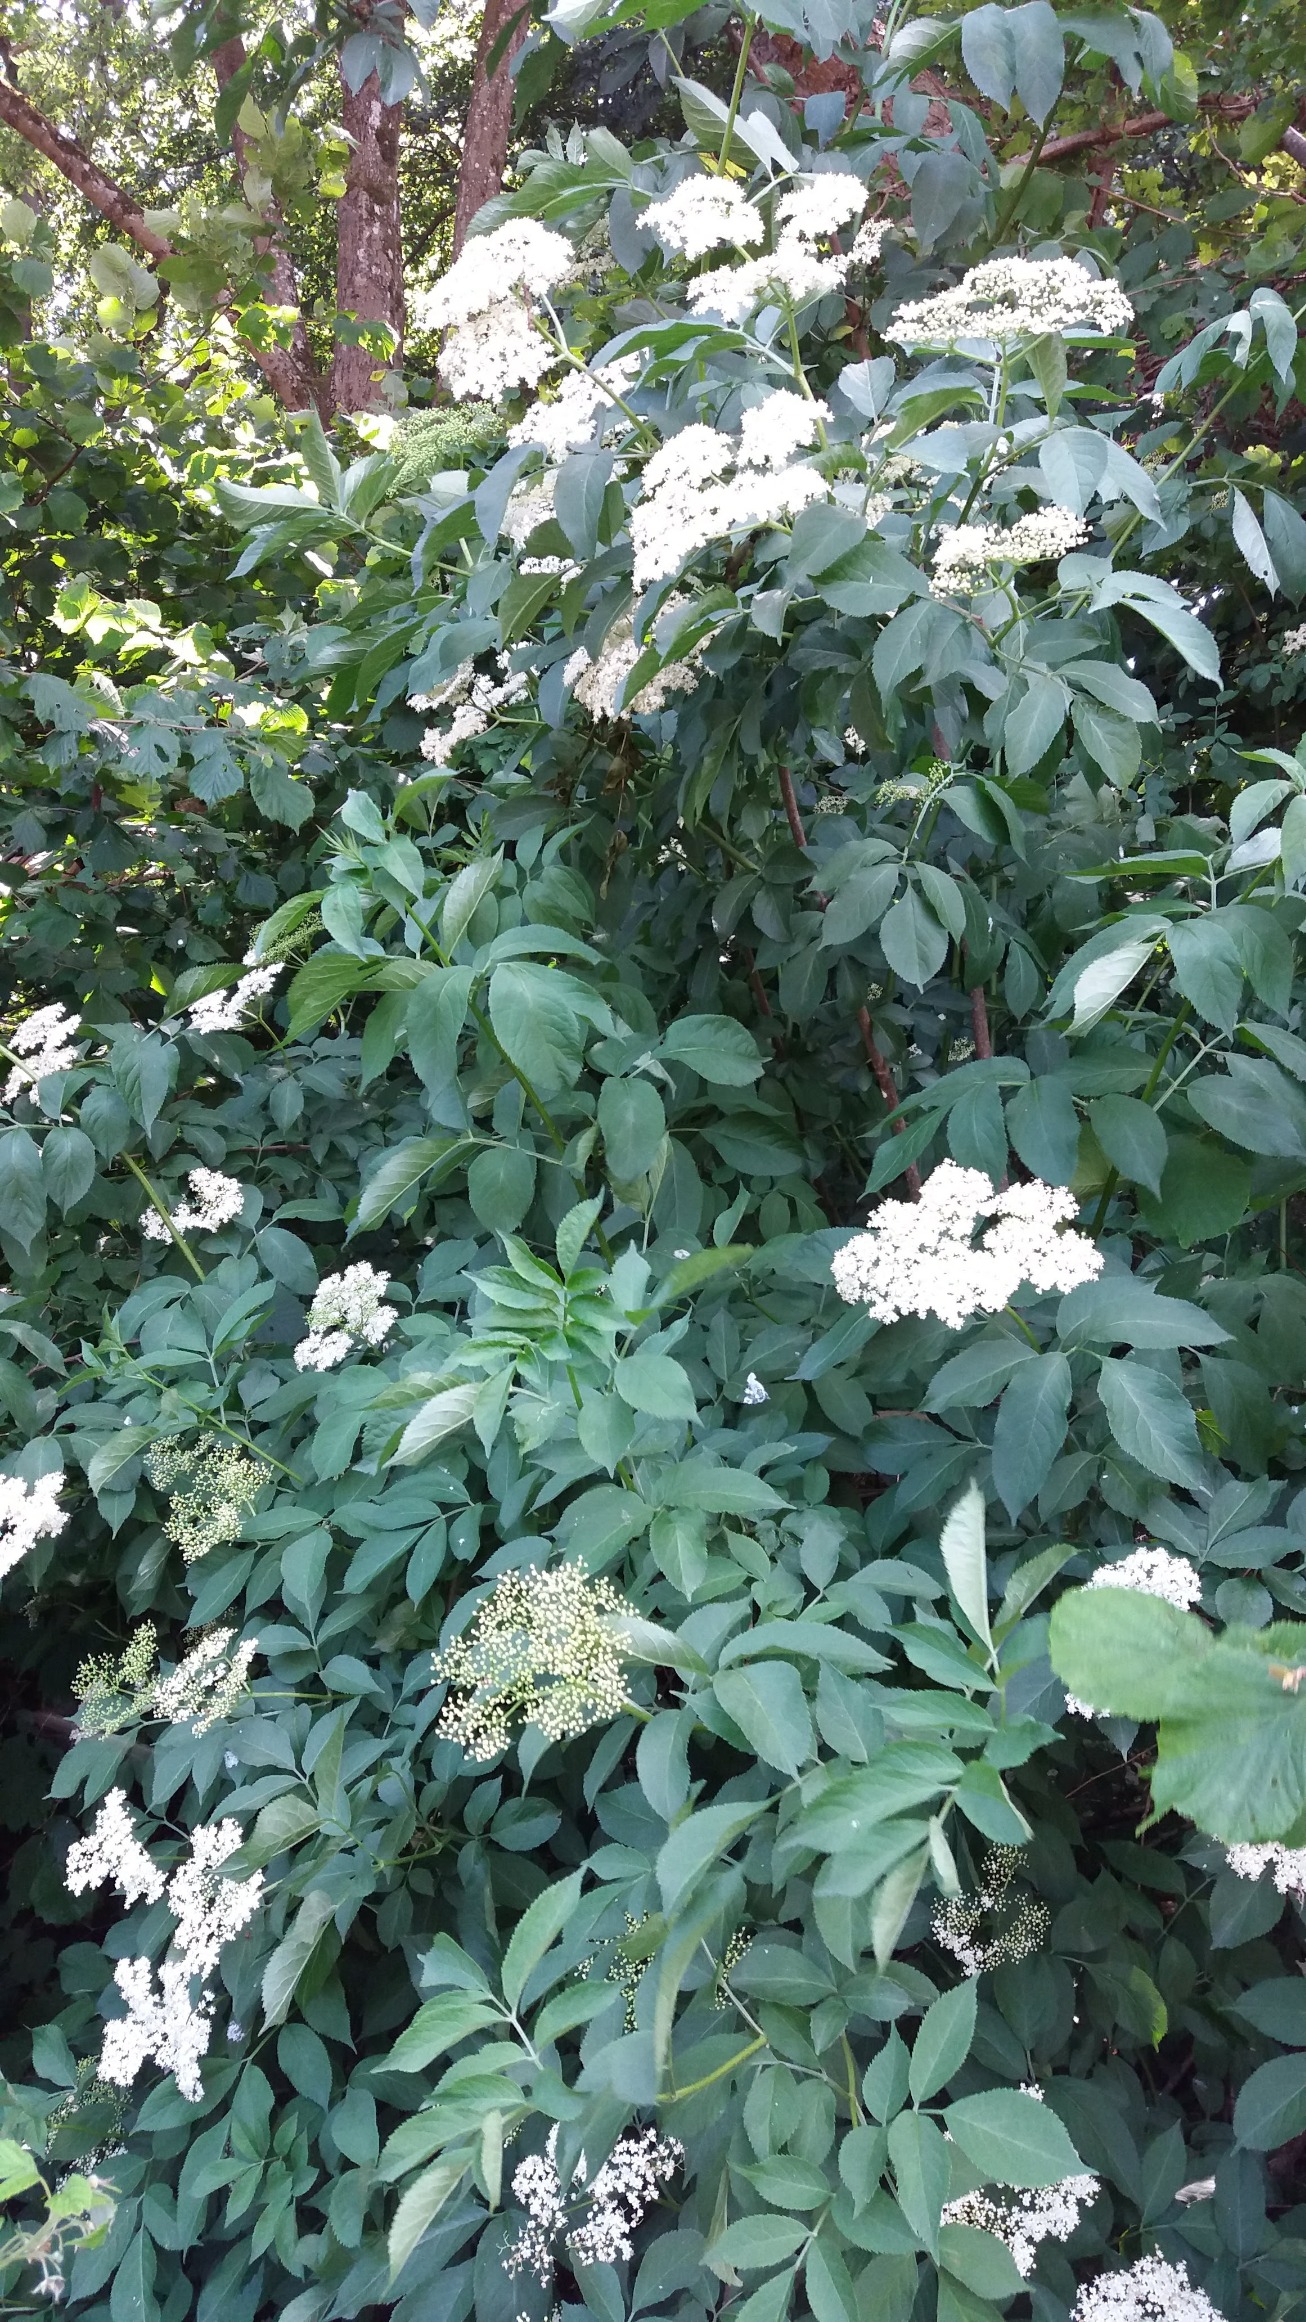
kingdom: Plantae
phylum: Tracheophyta
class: Magnoliopsida
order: Dipsacales
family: Viburnaceae
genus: Sambucus
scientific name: Sambucus nigra
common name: Almindelig hyld
